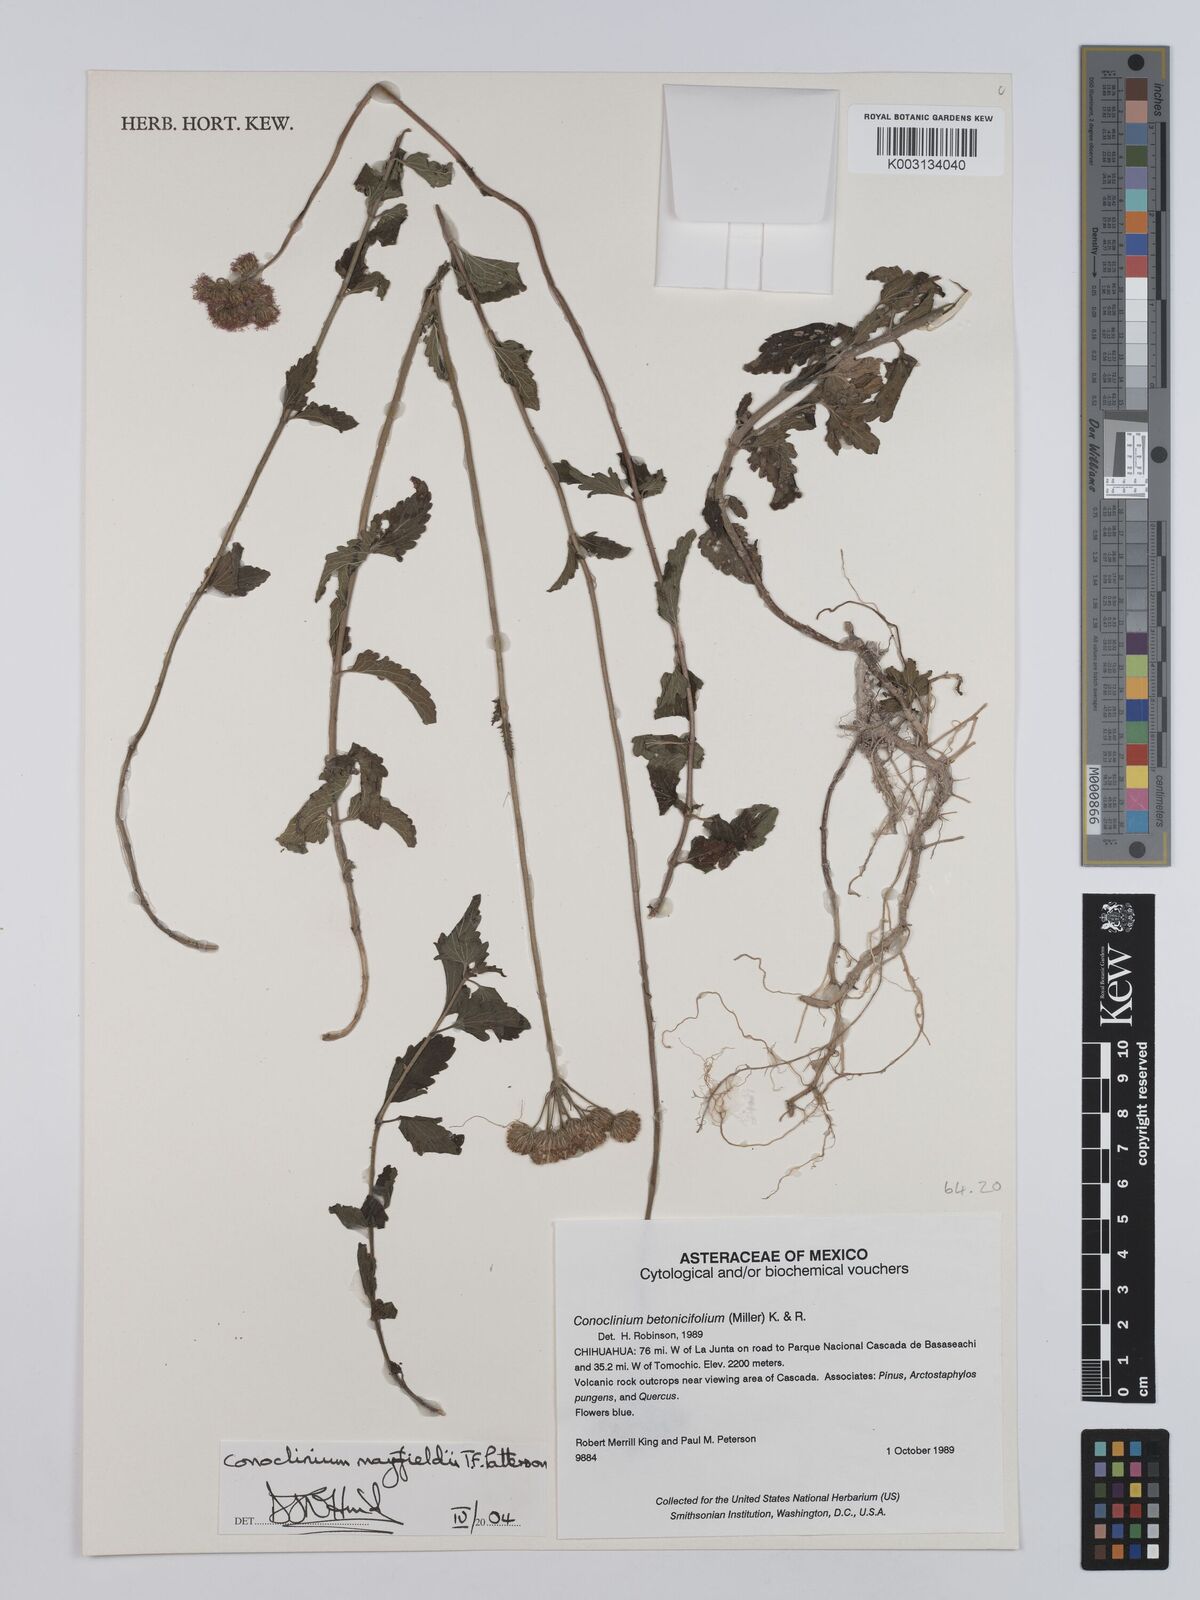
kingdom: Plantae
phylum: Tracheophyta
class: Magnoliopsida
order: Asterales
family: Asteraceae
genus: Conoclinium
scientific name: Conoclinium mayfieldii
